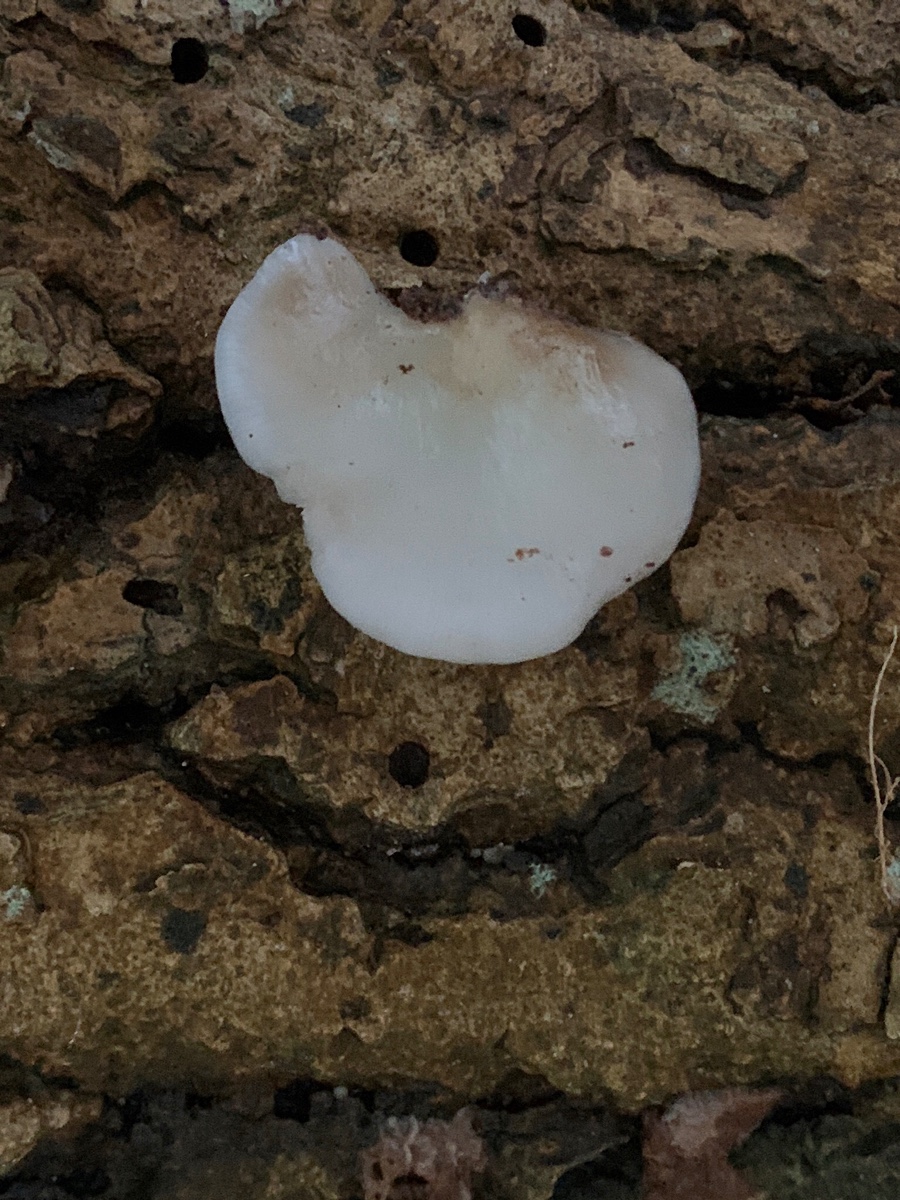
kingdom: Fungi
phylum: Basidiomycota
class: Agaricomycetes
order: Agaricales
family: Crepidotaceae
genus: Crepidotus
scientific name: Crepidotus mollis
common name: blød muslingesvamp
